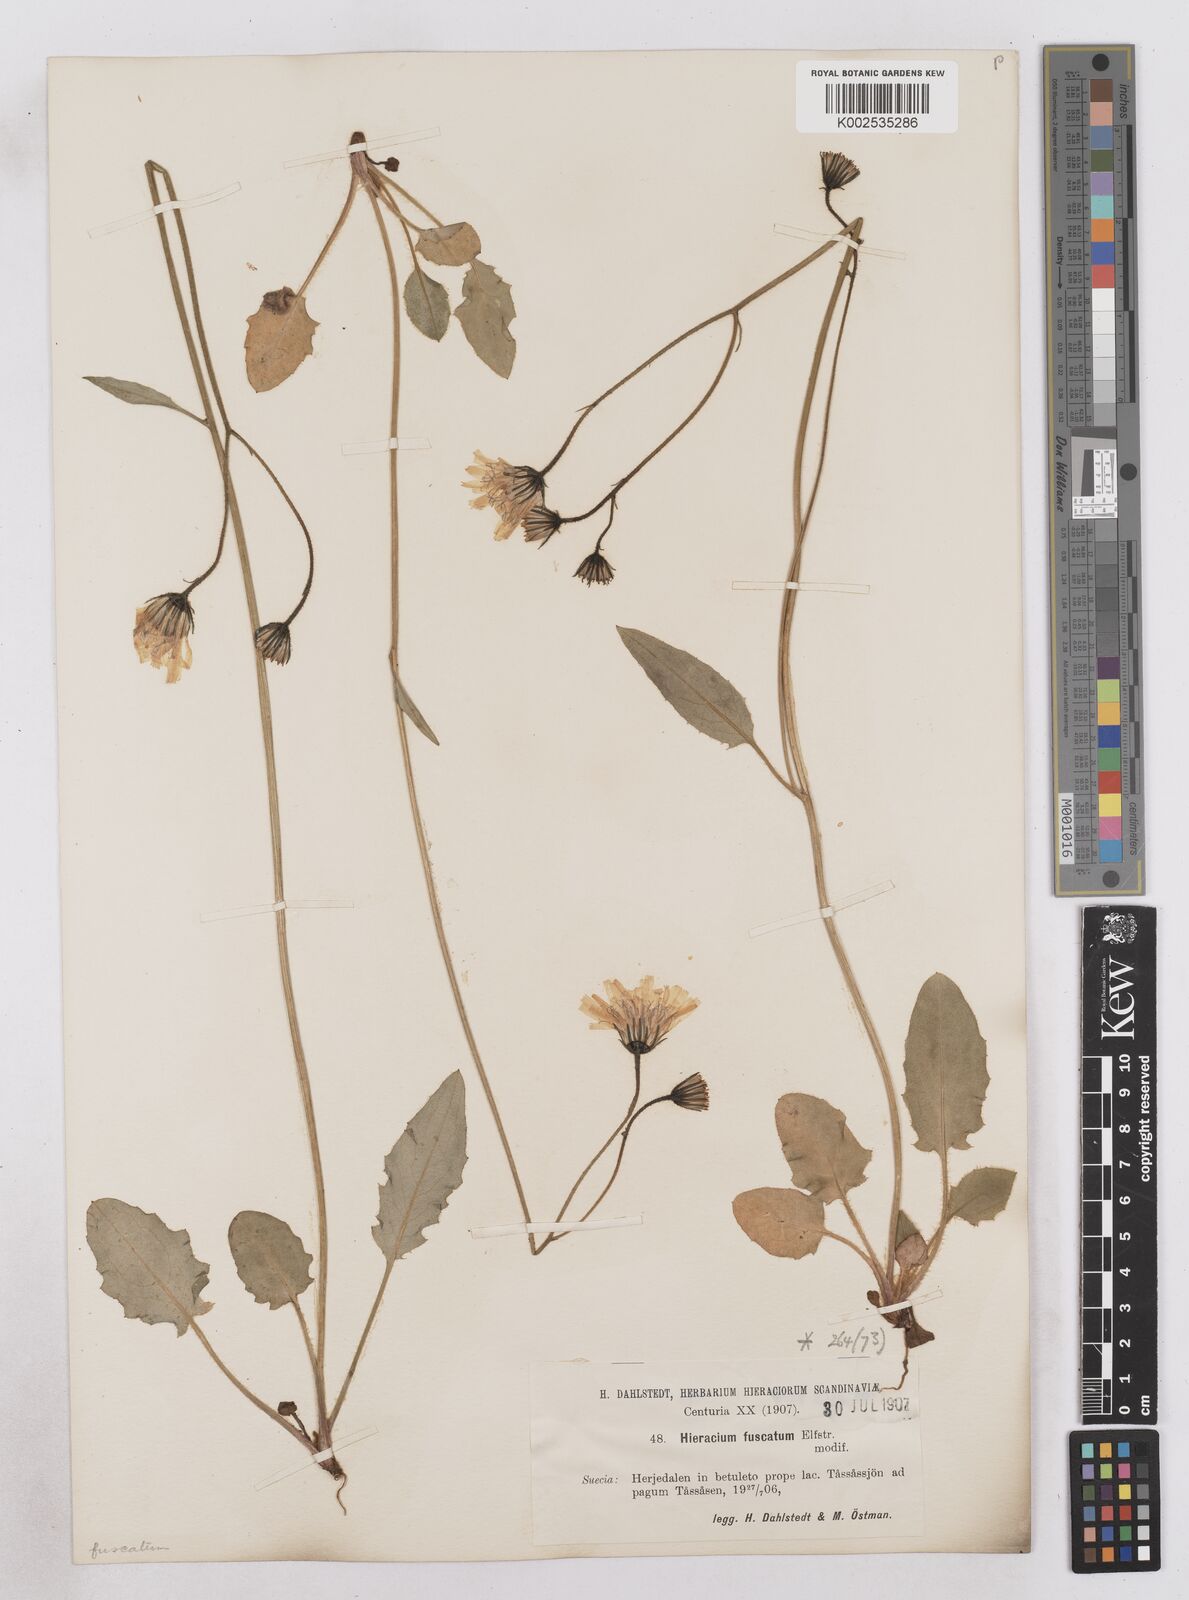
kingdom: Plantae
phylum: Tracheophyta
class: Magnoliopsida
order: Asterales
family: Asteraceae
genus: Hieracium
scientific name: Hieracium atratum
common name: Polar hawkweed
